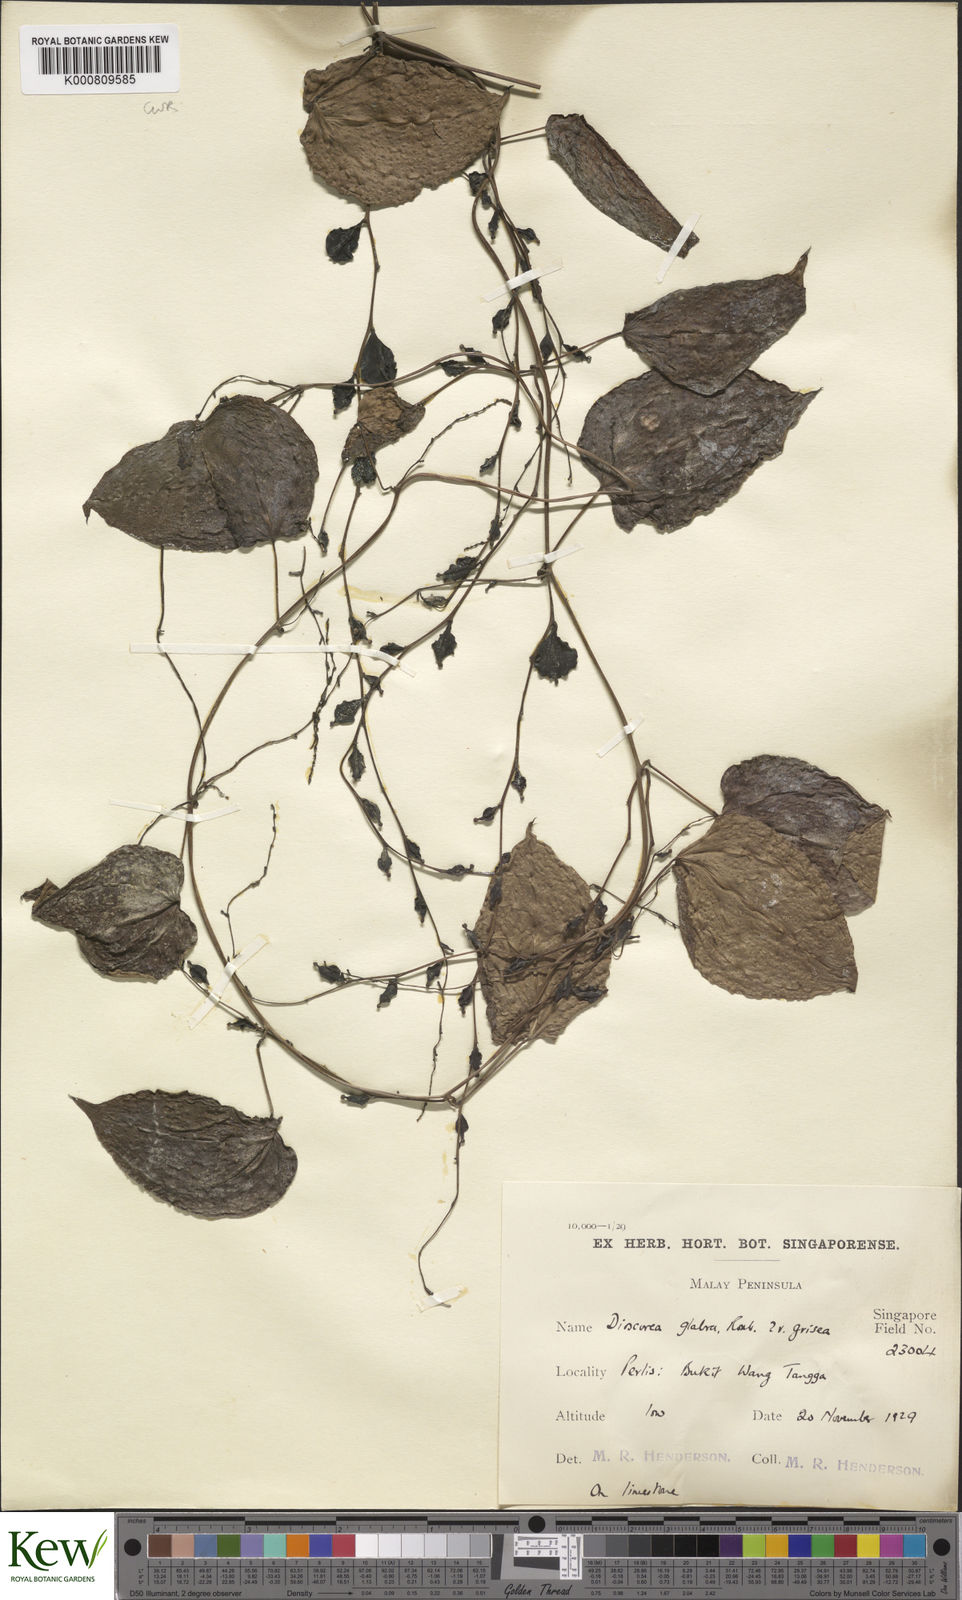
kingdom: Plantae
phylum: Tracheophyta
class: Liliopsida
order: Dioscoreales
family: Dioscoreaceae
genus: Dioscorea
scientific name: Dioscorea glabra
